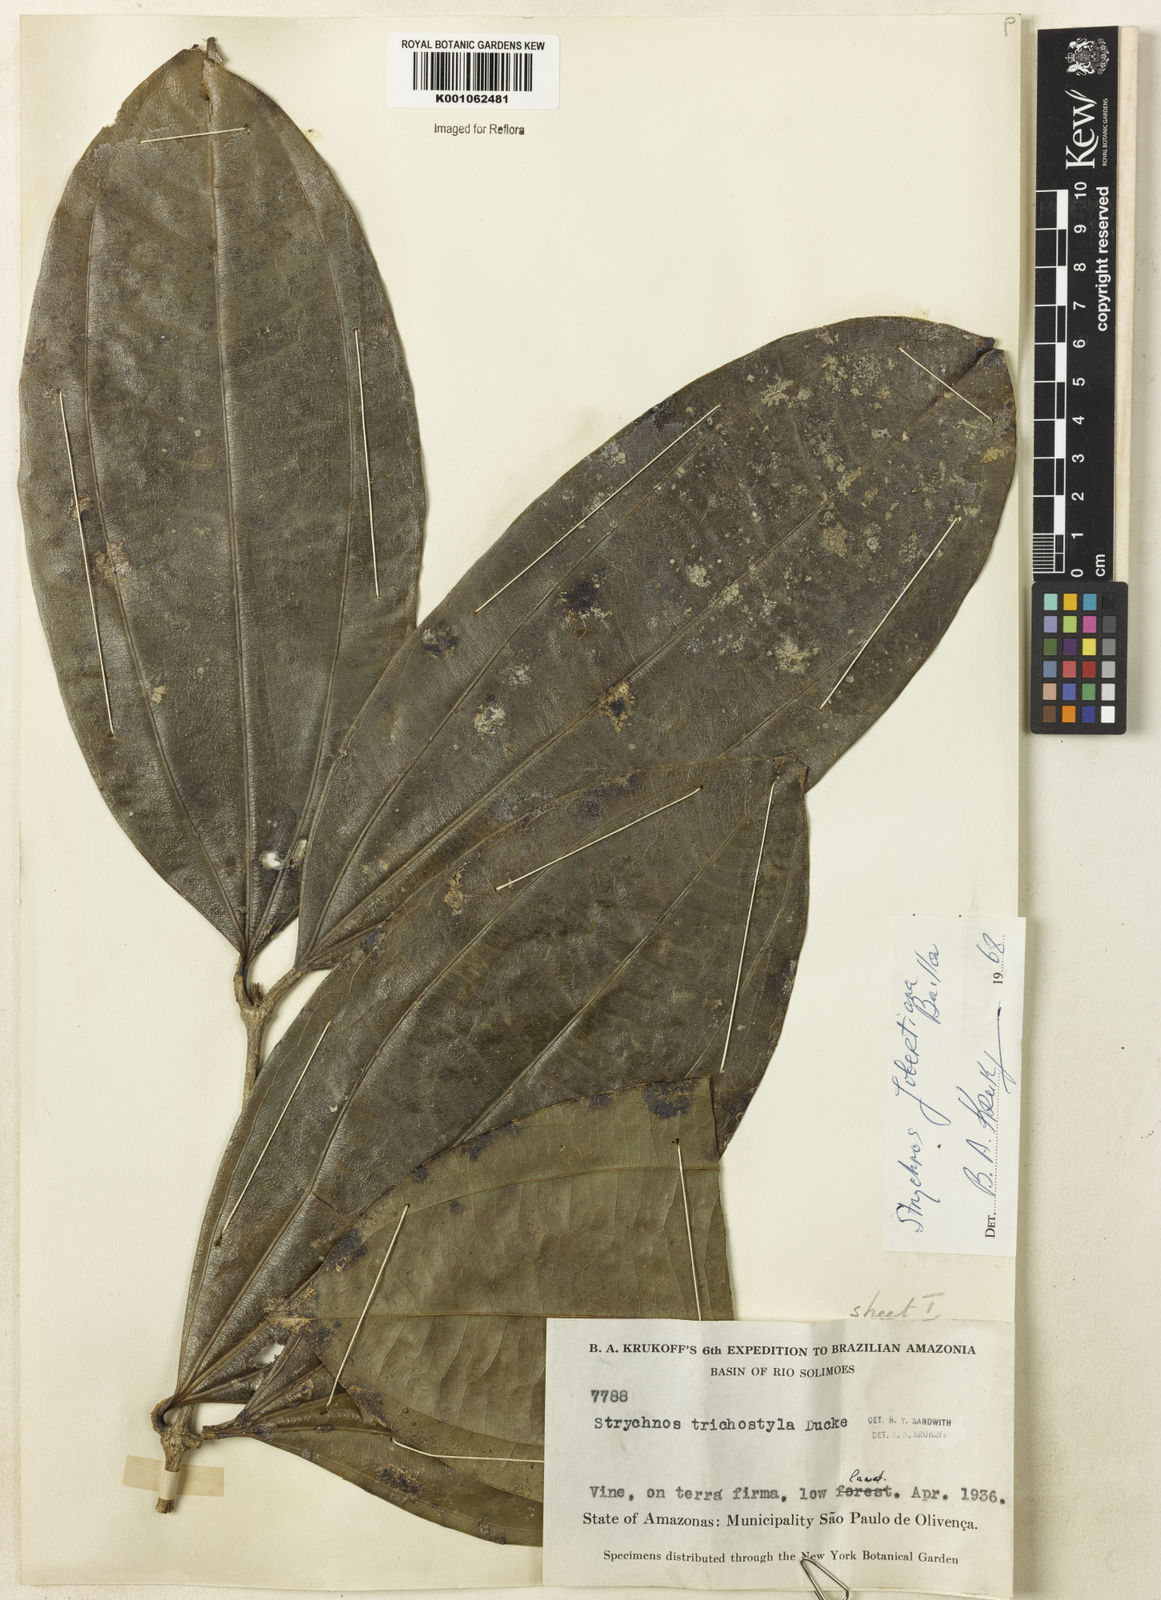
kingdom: Plantae
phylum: Tracheophyta
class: Magnoliopsida
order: Gentianales
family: Loganiaceae
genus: Strychnos
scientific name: Strychnos jobertiana
